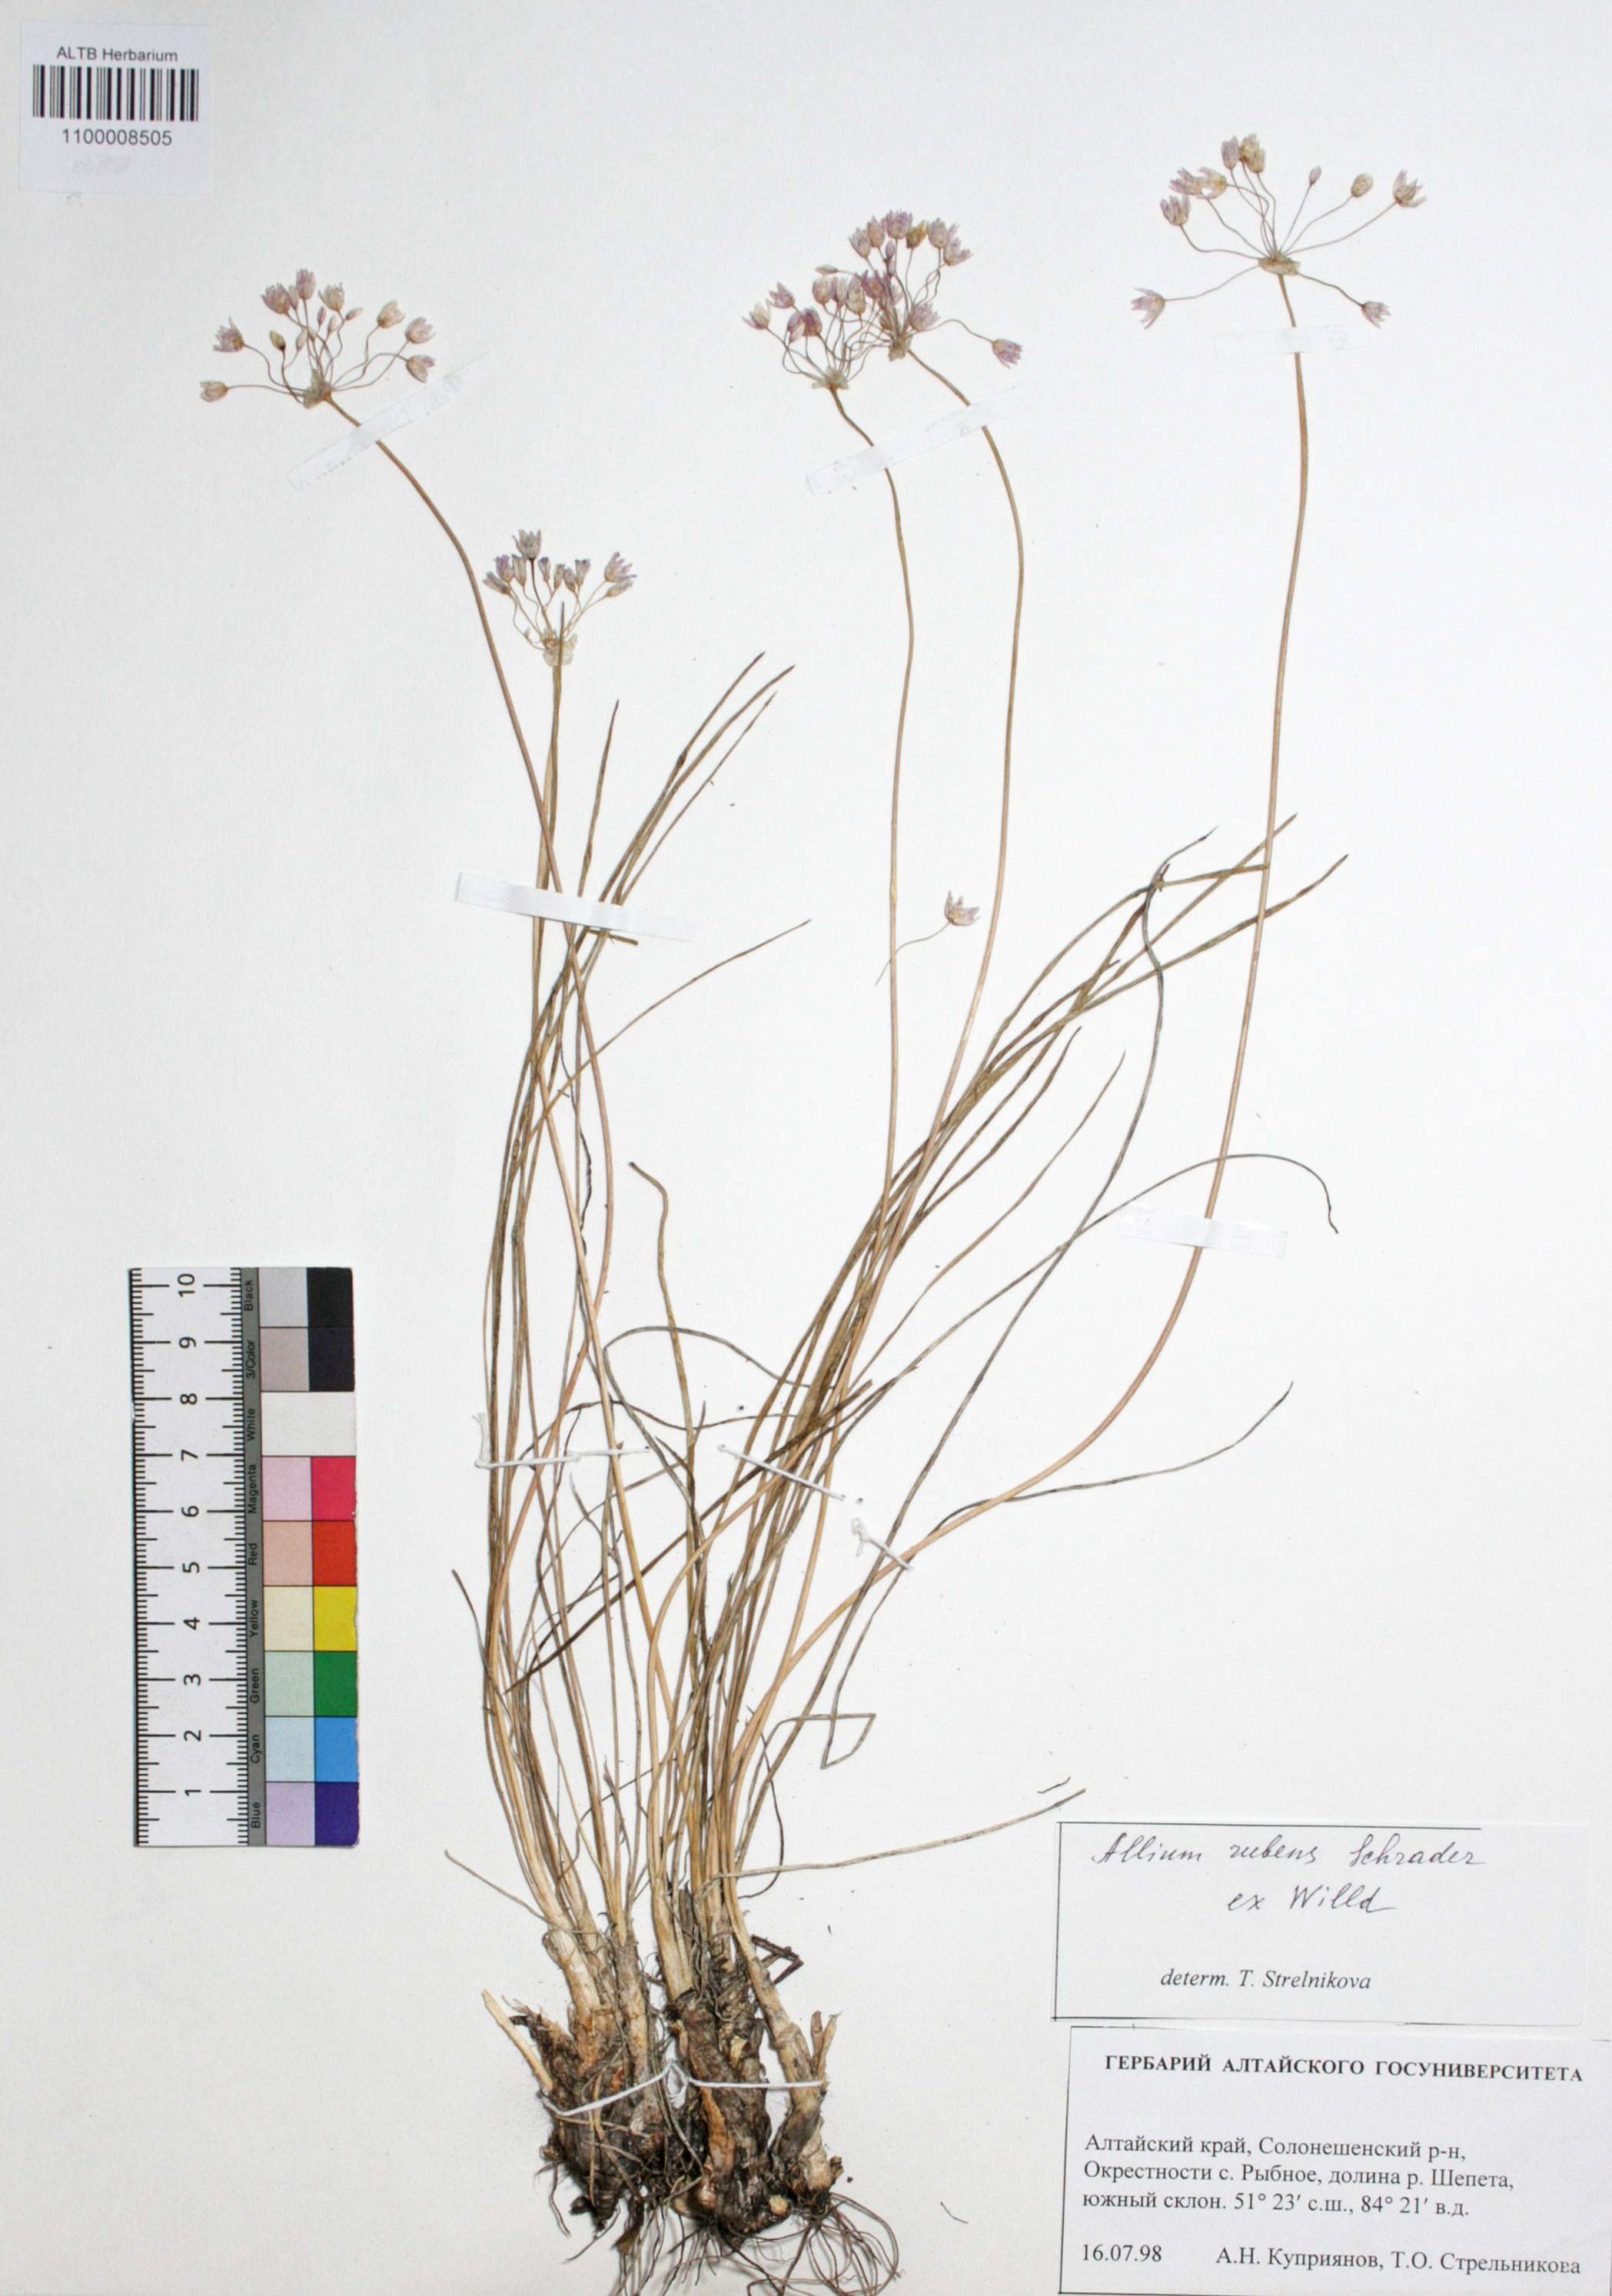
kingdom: Plantae
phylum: Tracheophyta
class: Liliopsida
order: Asparagales
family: Amaryllidaceae
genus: Allium
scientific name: Allium rubens
